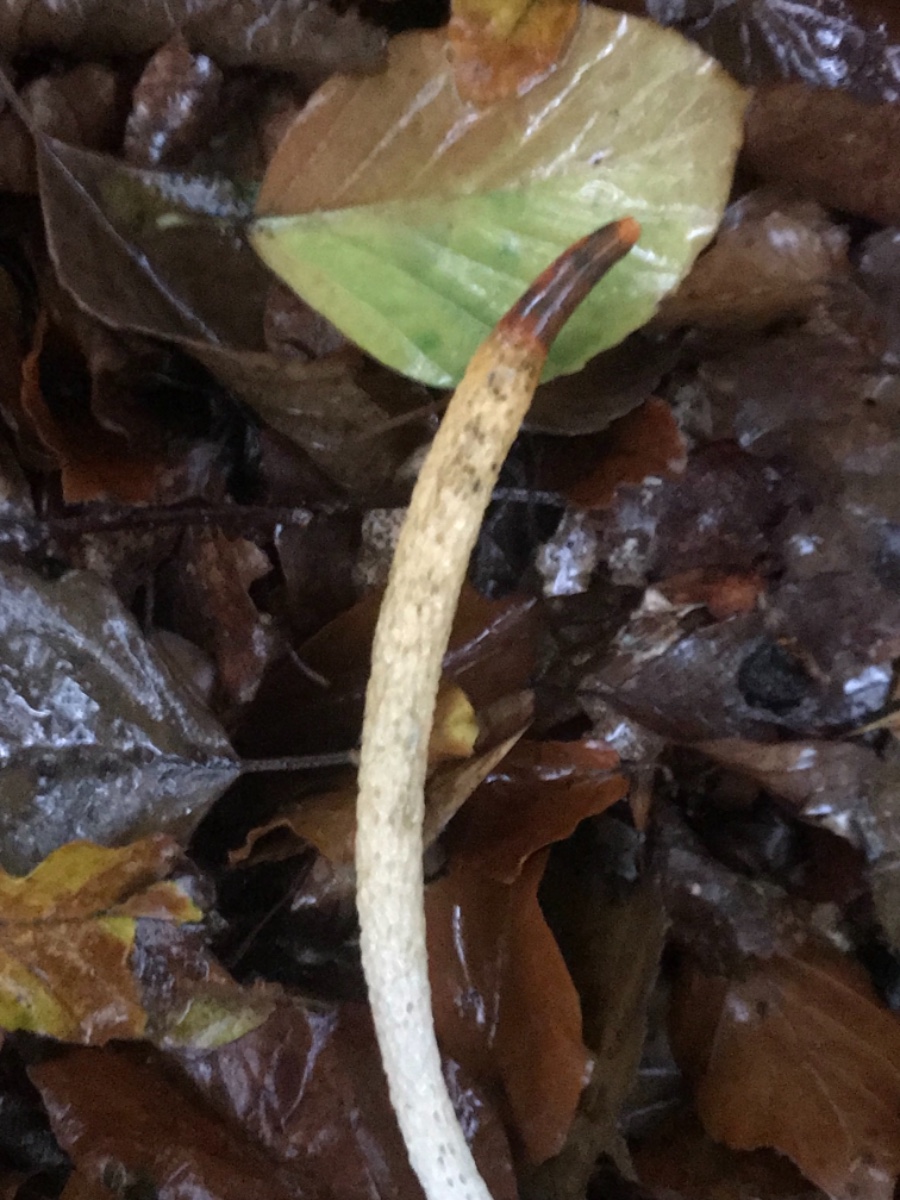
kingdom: Fungi
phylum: Basidiomycota
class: Agaricomycetes
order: Phallales
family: Phallaceae
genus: Mutinus
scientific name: Mutinus caninus
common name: hunde-stinksvamp
